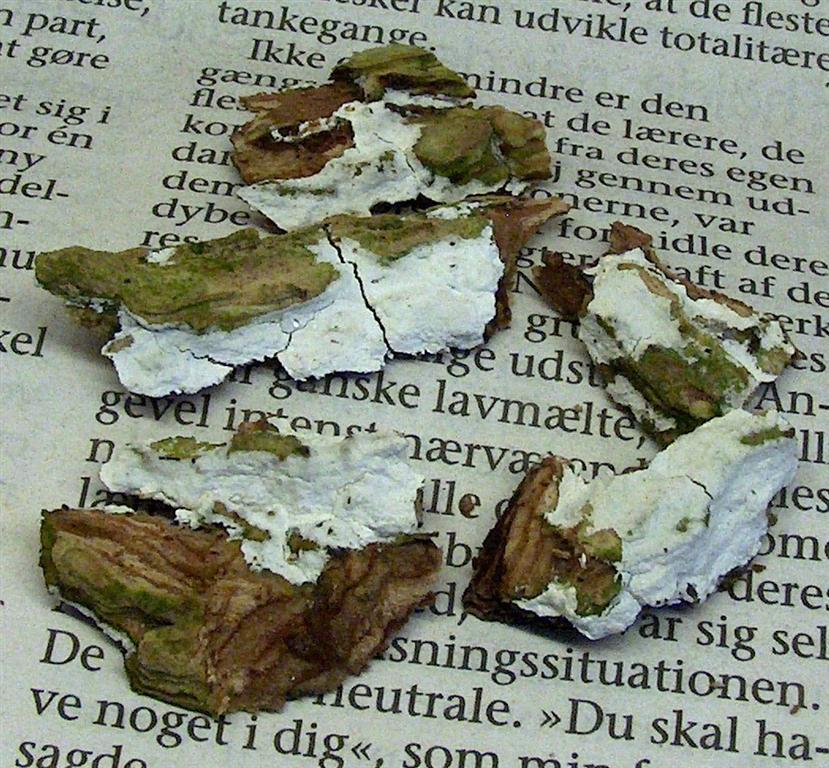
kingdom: Fungi
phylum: Basidiomycota
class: Agaricomycetes
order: Corticiales
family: Corticiaceae
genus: Lyomyces
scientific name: Lyomyces sambuci
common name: almindelig hyldehinde
